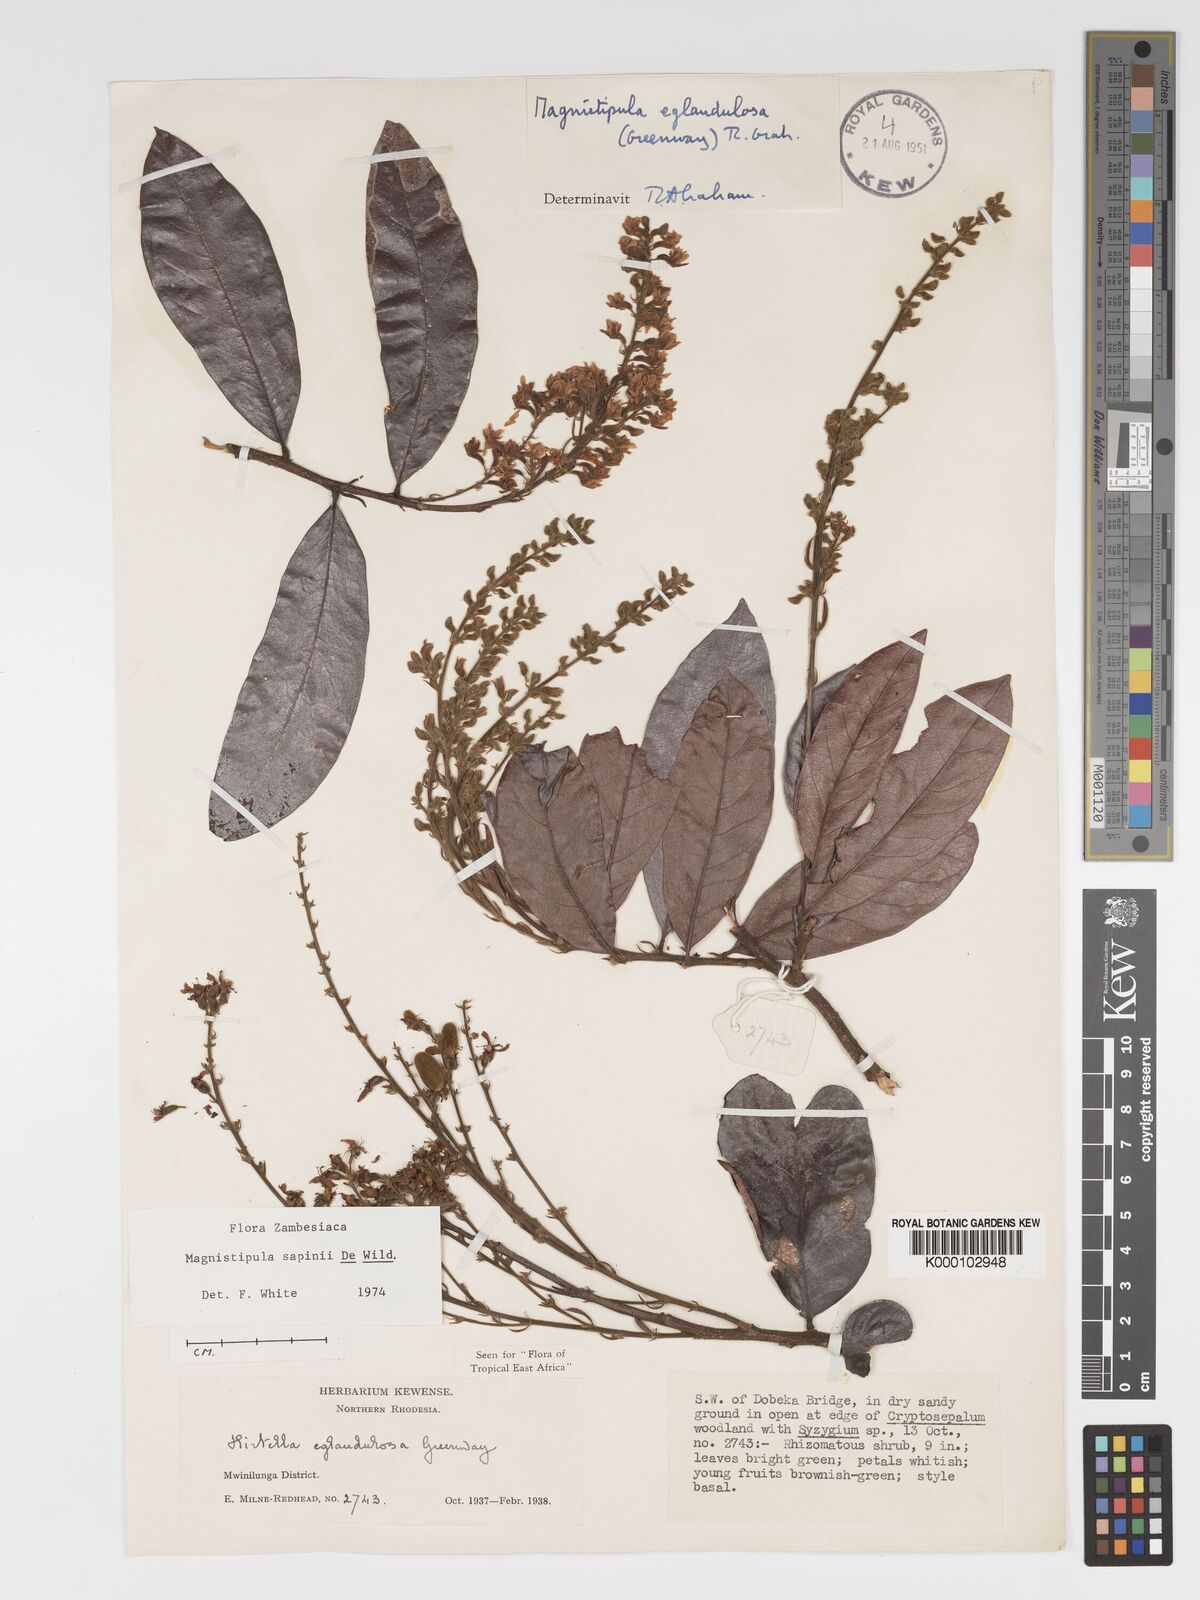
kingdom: Plantae
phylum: Tracheophyta
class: Magnoliopsida
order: Malpighiales
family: Chrysobalanaceae
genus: Magnistipula
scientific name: Magnistipula sapinii
